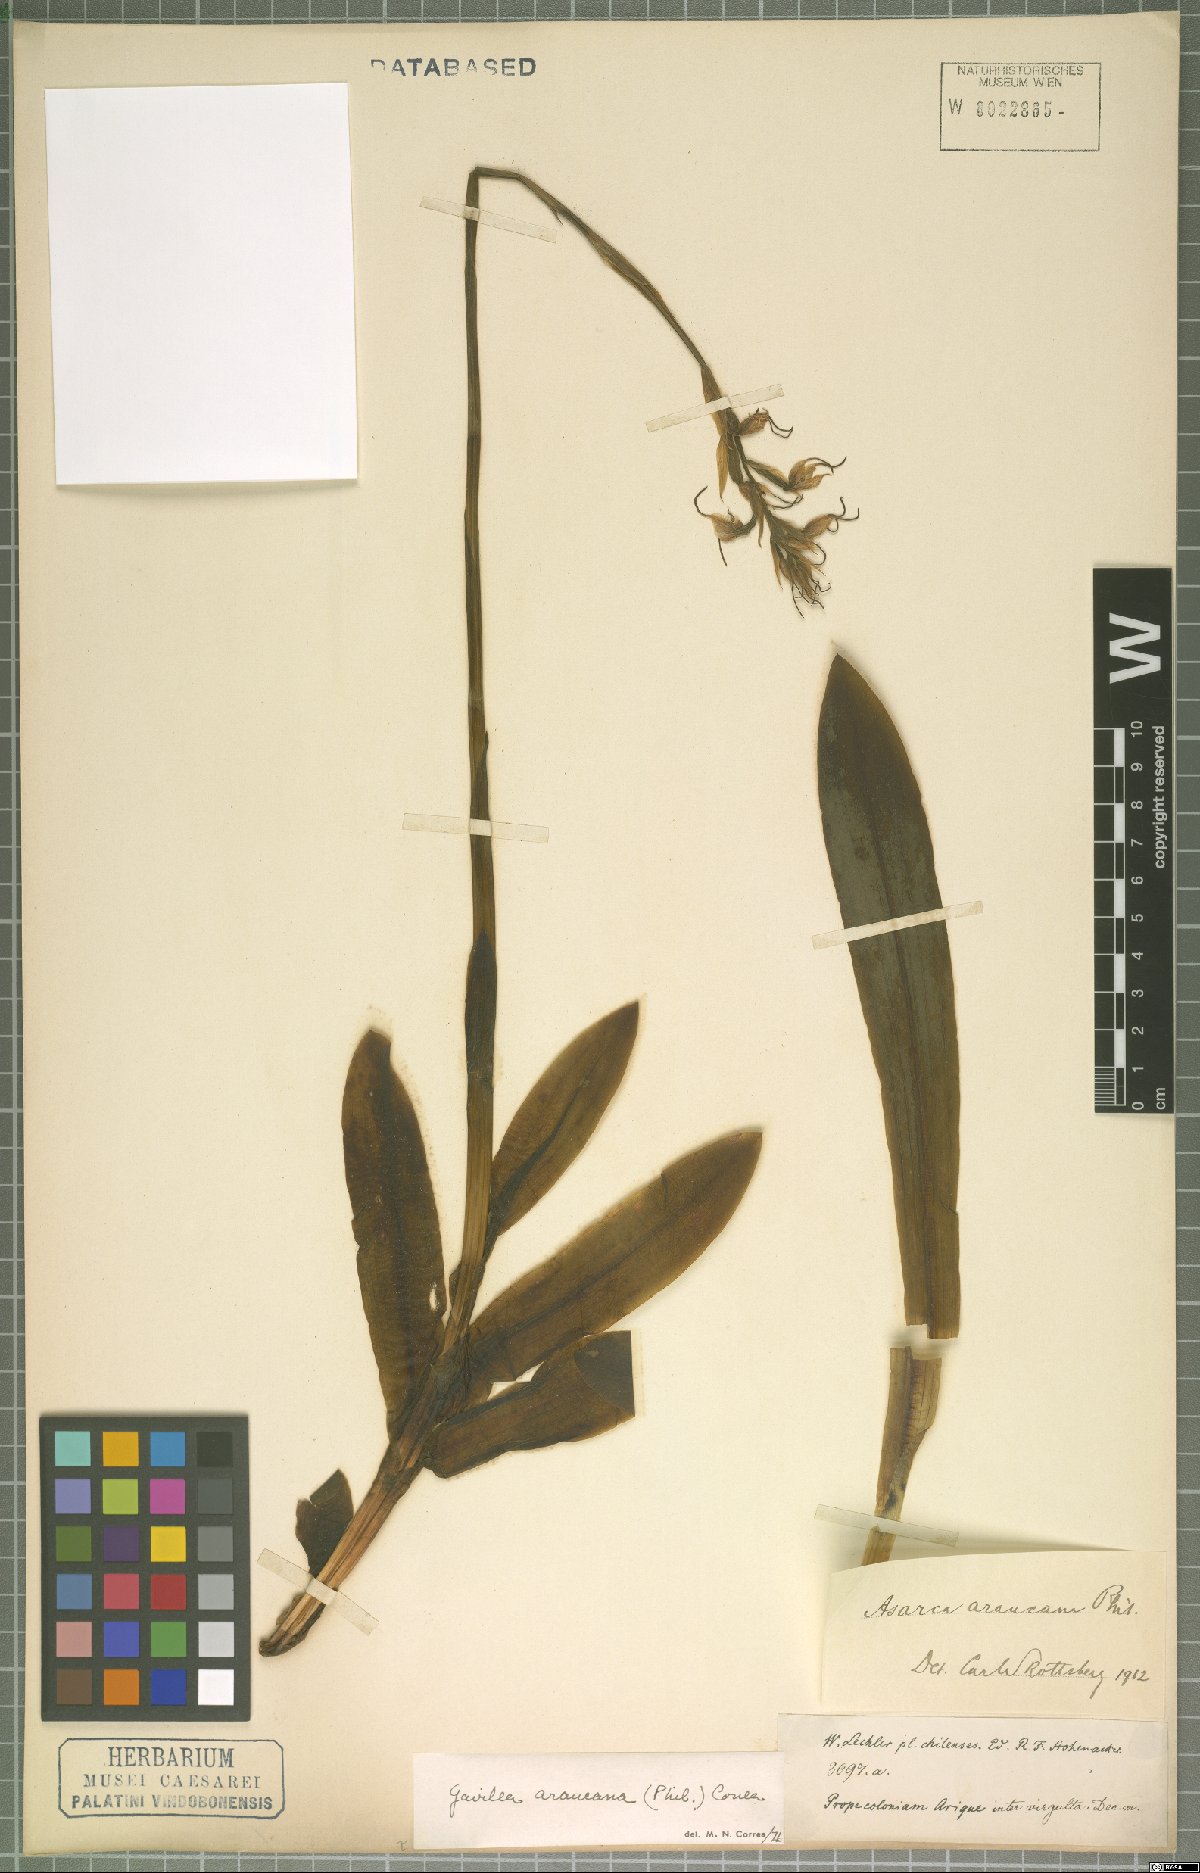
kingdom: Plantae
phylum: Tracheophyta
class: Liliopsida
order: Asparagales
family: Orchidaceae
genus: Gavilea
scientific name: Gavilea araucana
